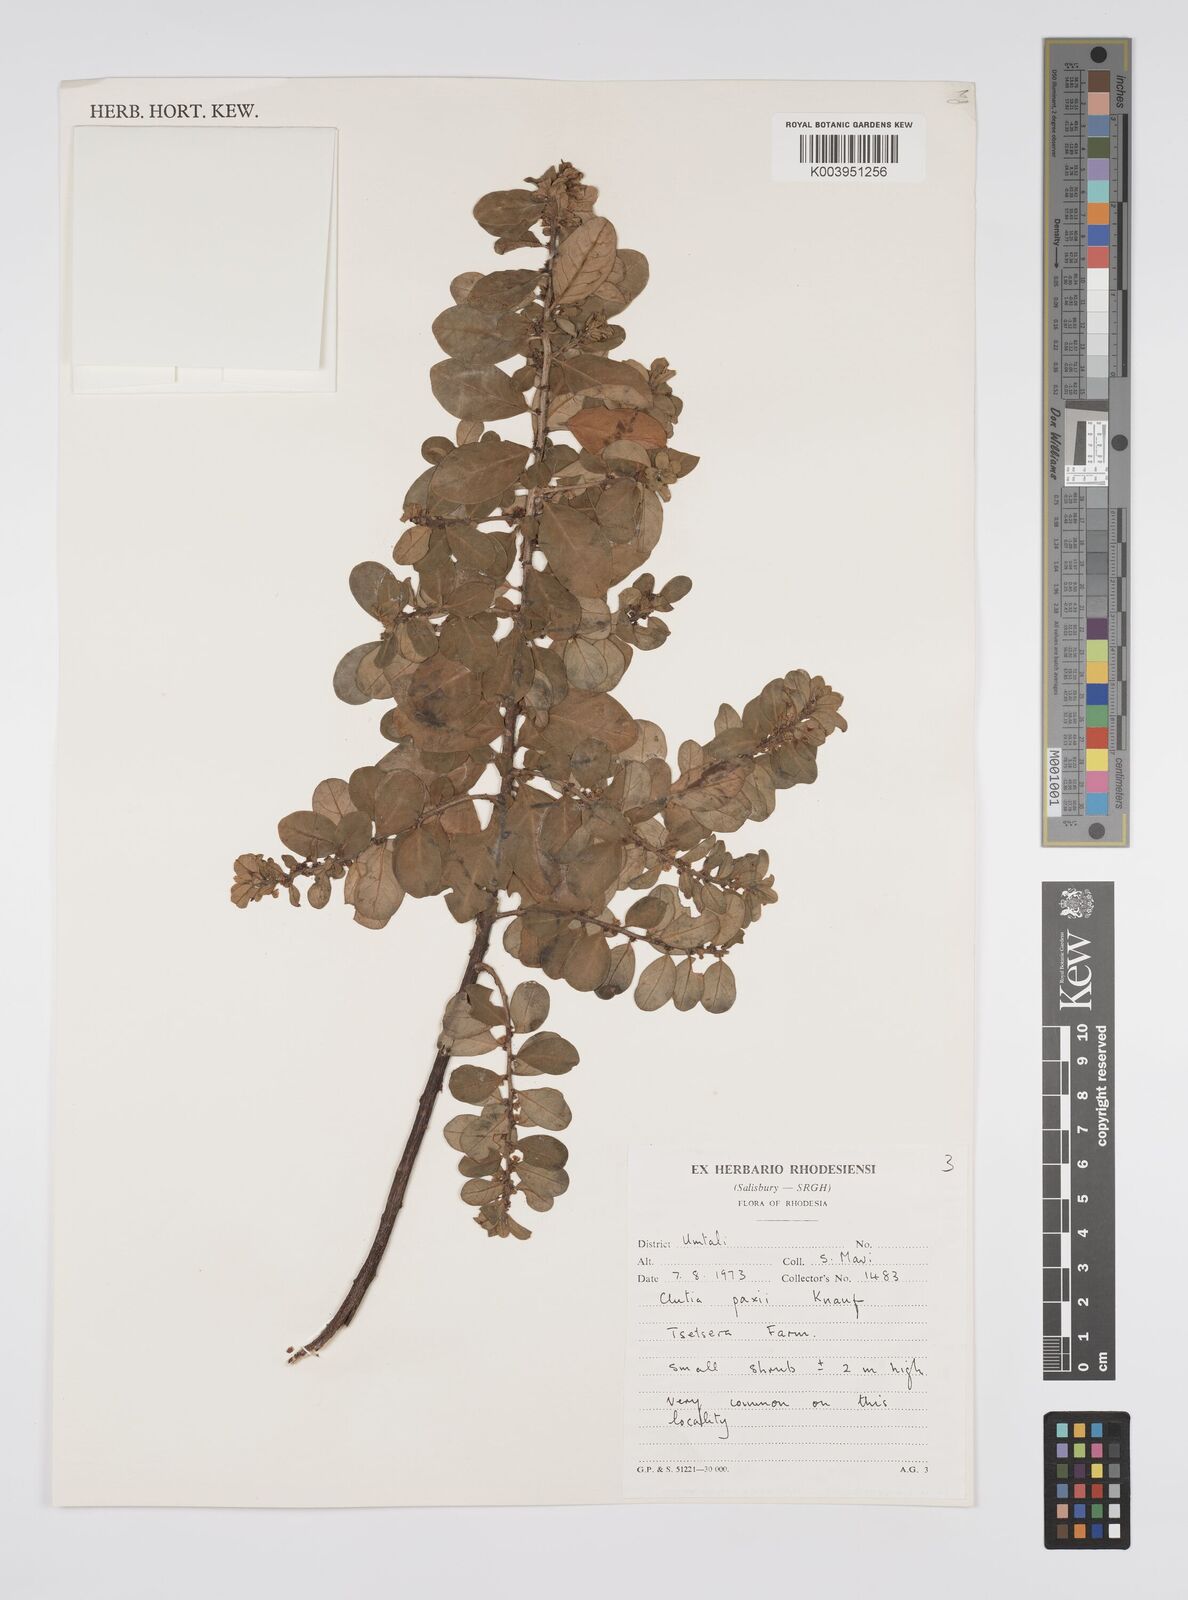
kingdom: Plantae
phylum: Tracheophyta
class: Magnoliopsida
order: Malpighiales
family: Peraceae
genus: Clutia
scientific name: Clutia paxii
